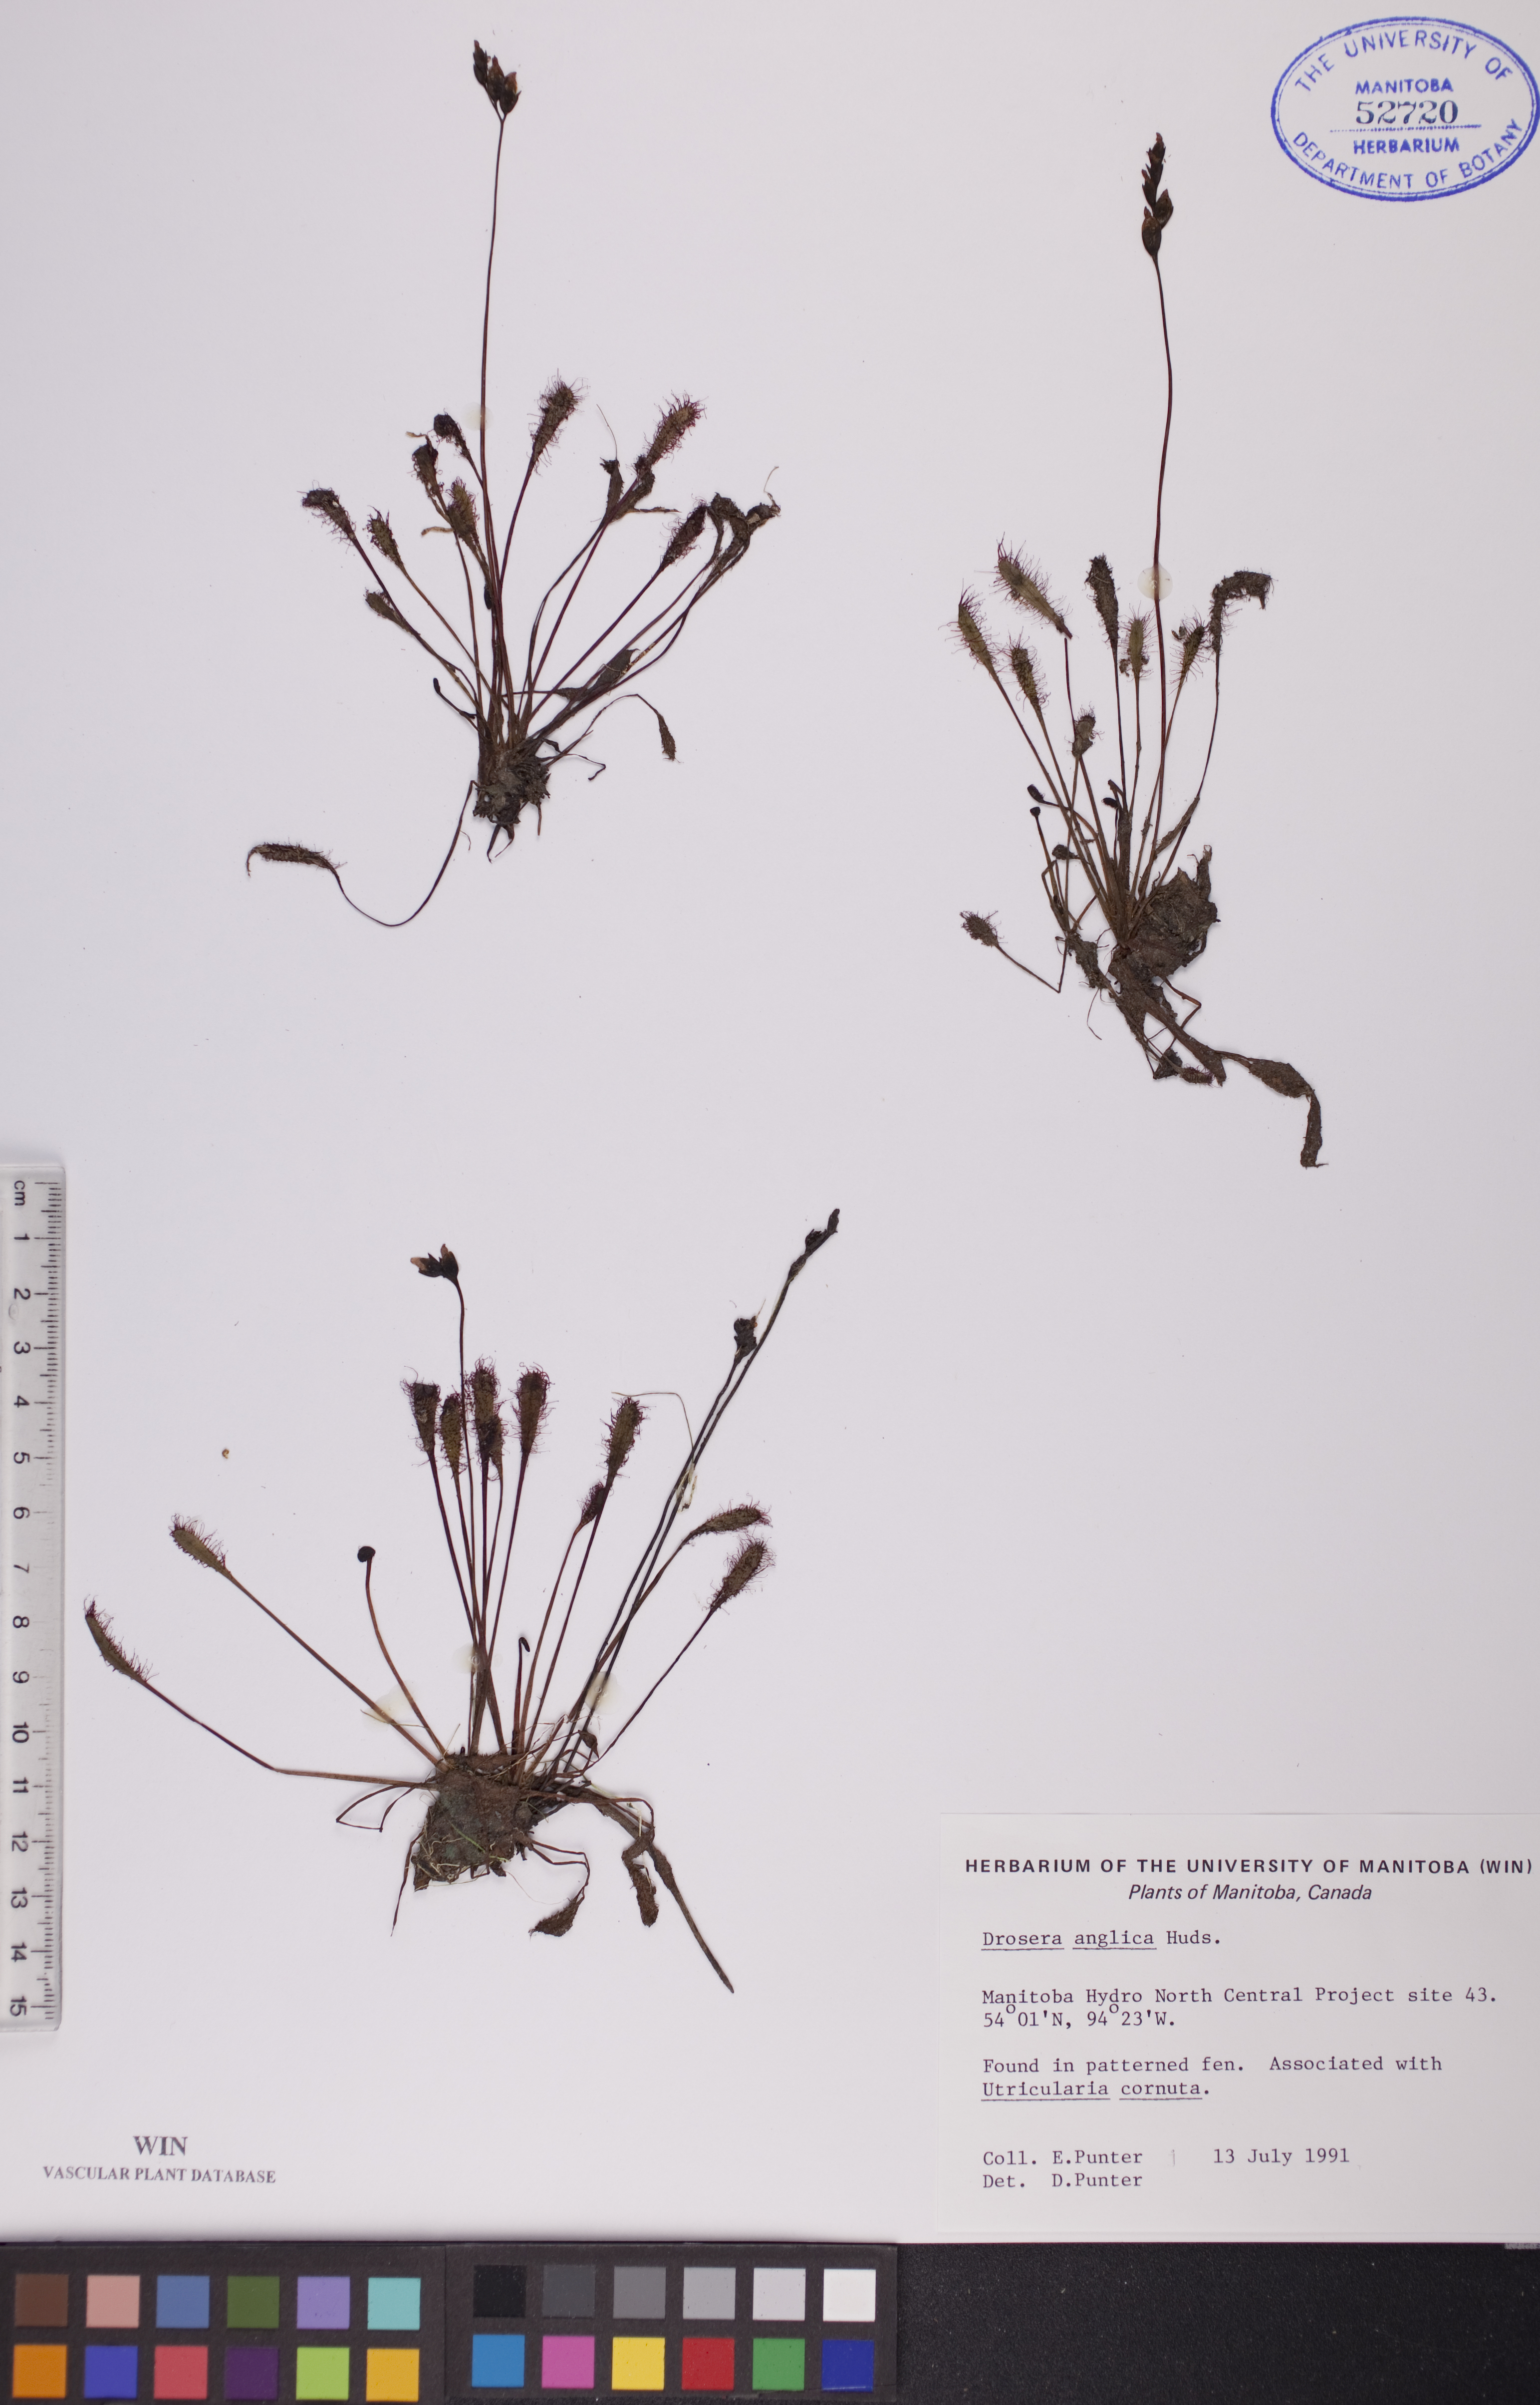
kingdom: Plantae
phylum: Tracheophyta
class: Magnoliopsida
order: Caryophyllales
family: Droseraceae
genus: Drosera
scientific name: Drosera anglica
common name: Great sundew
